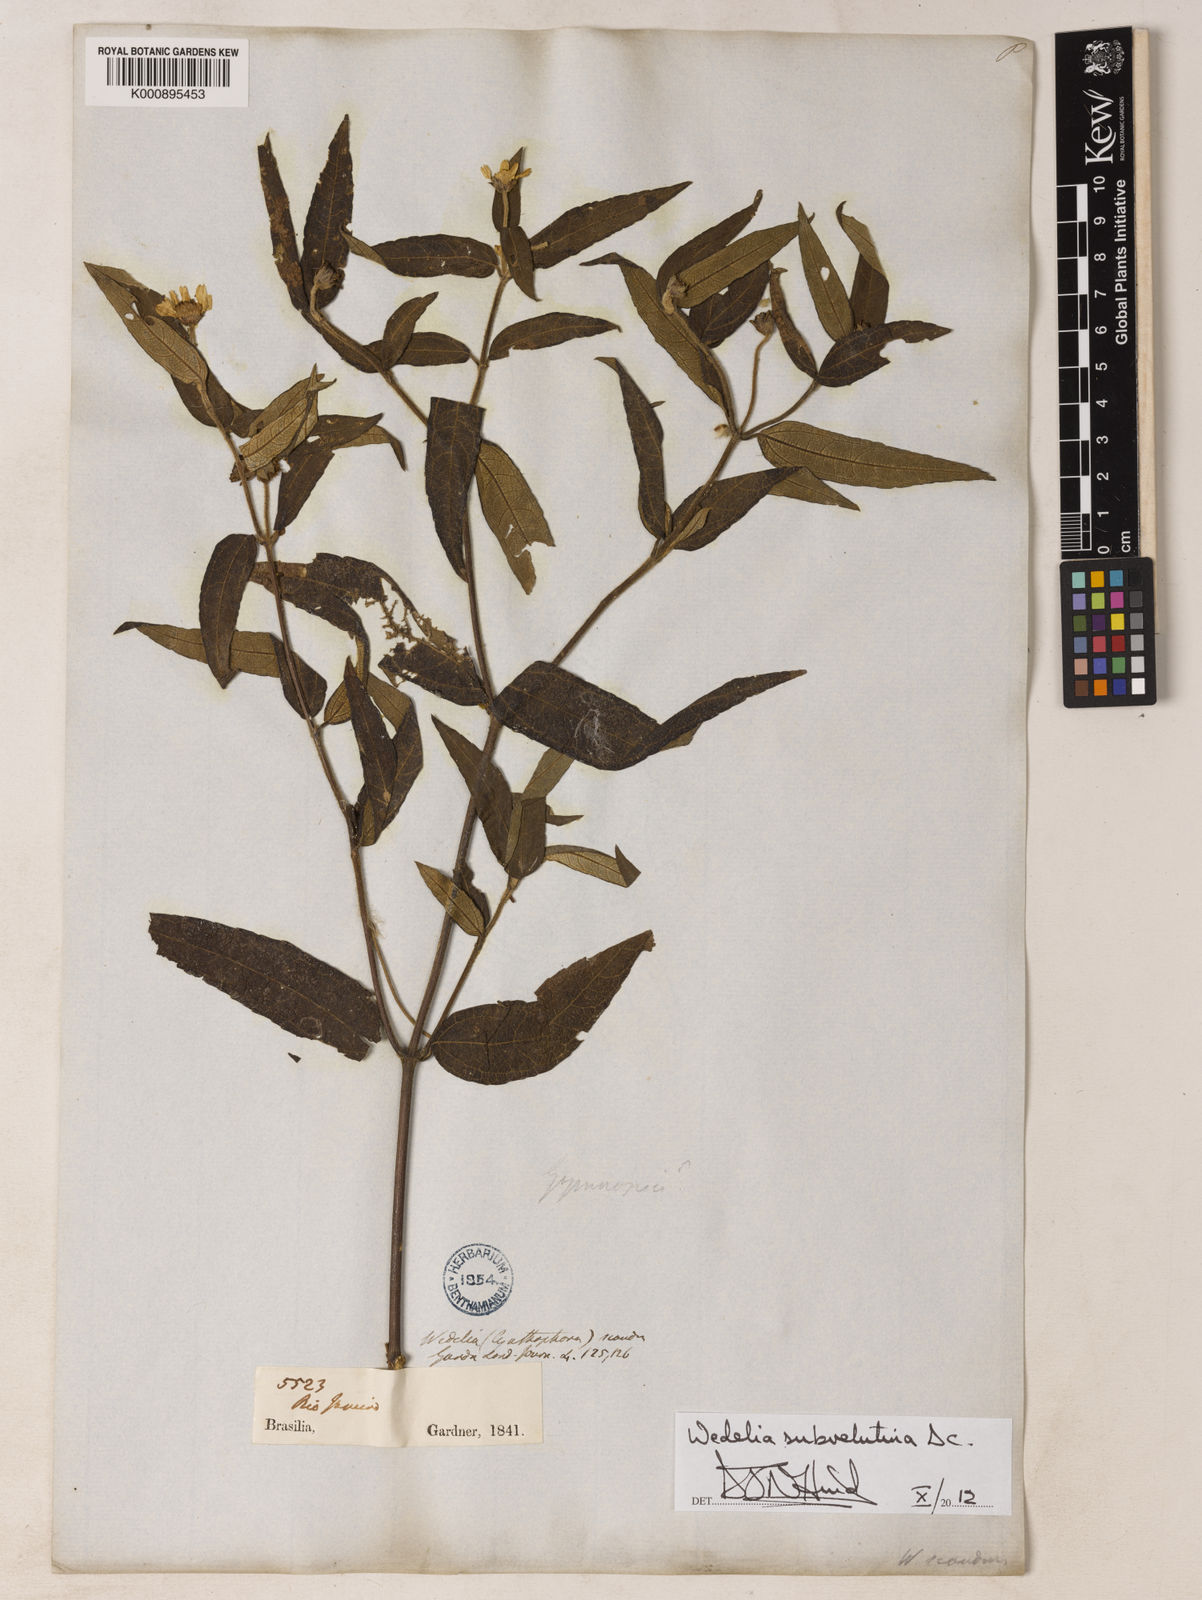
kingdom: Plantae
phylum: Tracheophyta
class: Magnoliopsida
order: Asterales
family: Asteraceae
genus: Wedelia
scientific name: Wedelia subvelutina
